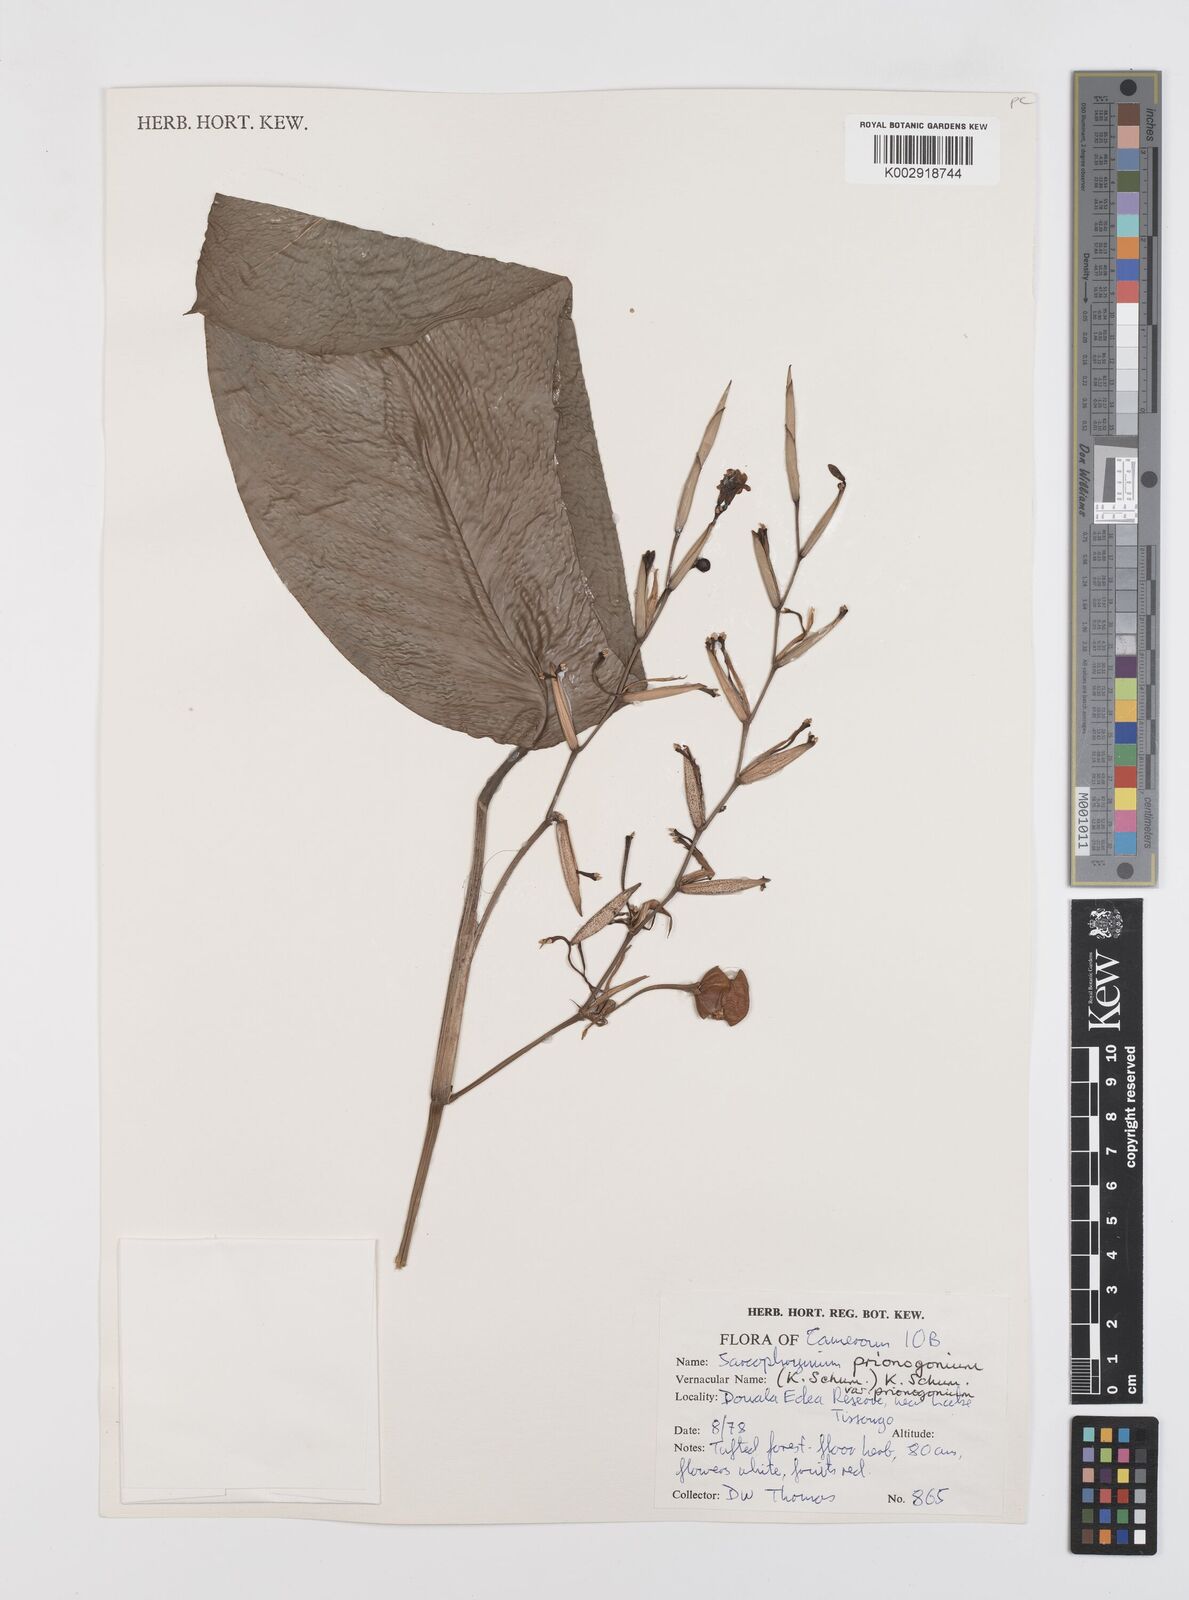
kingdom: Plantae
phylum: Tracheophyta
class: Liliopsida
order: Zingiberales
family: Marantaceae
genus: Sarcophrynium
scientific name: Sarcophrynium prionogonium
